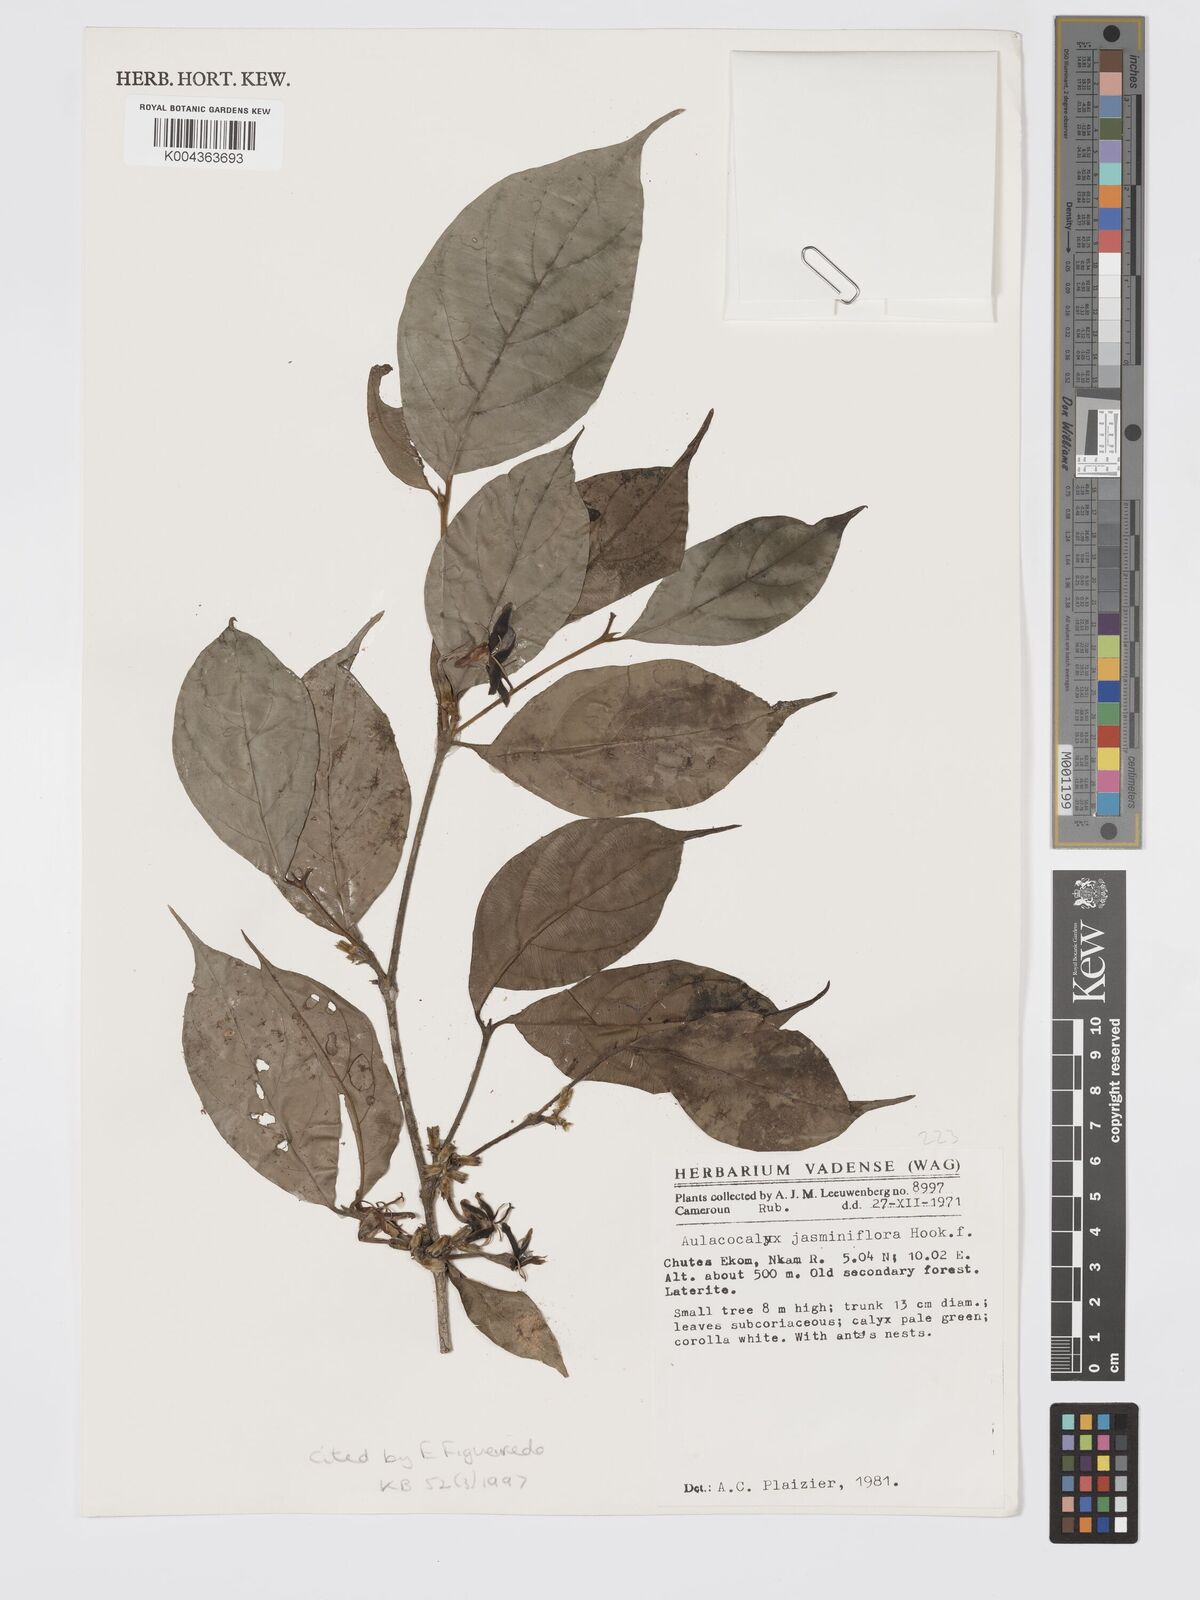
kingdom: Plantae
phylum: Tracheophyta
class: Magnoliopsida
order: Gentianales
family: Rubiaceae
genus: Aulacocalyx
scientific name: Aulacocalyx jasminiflora
